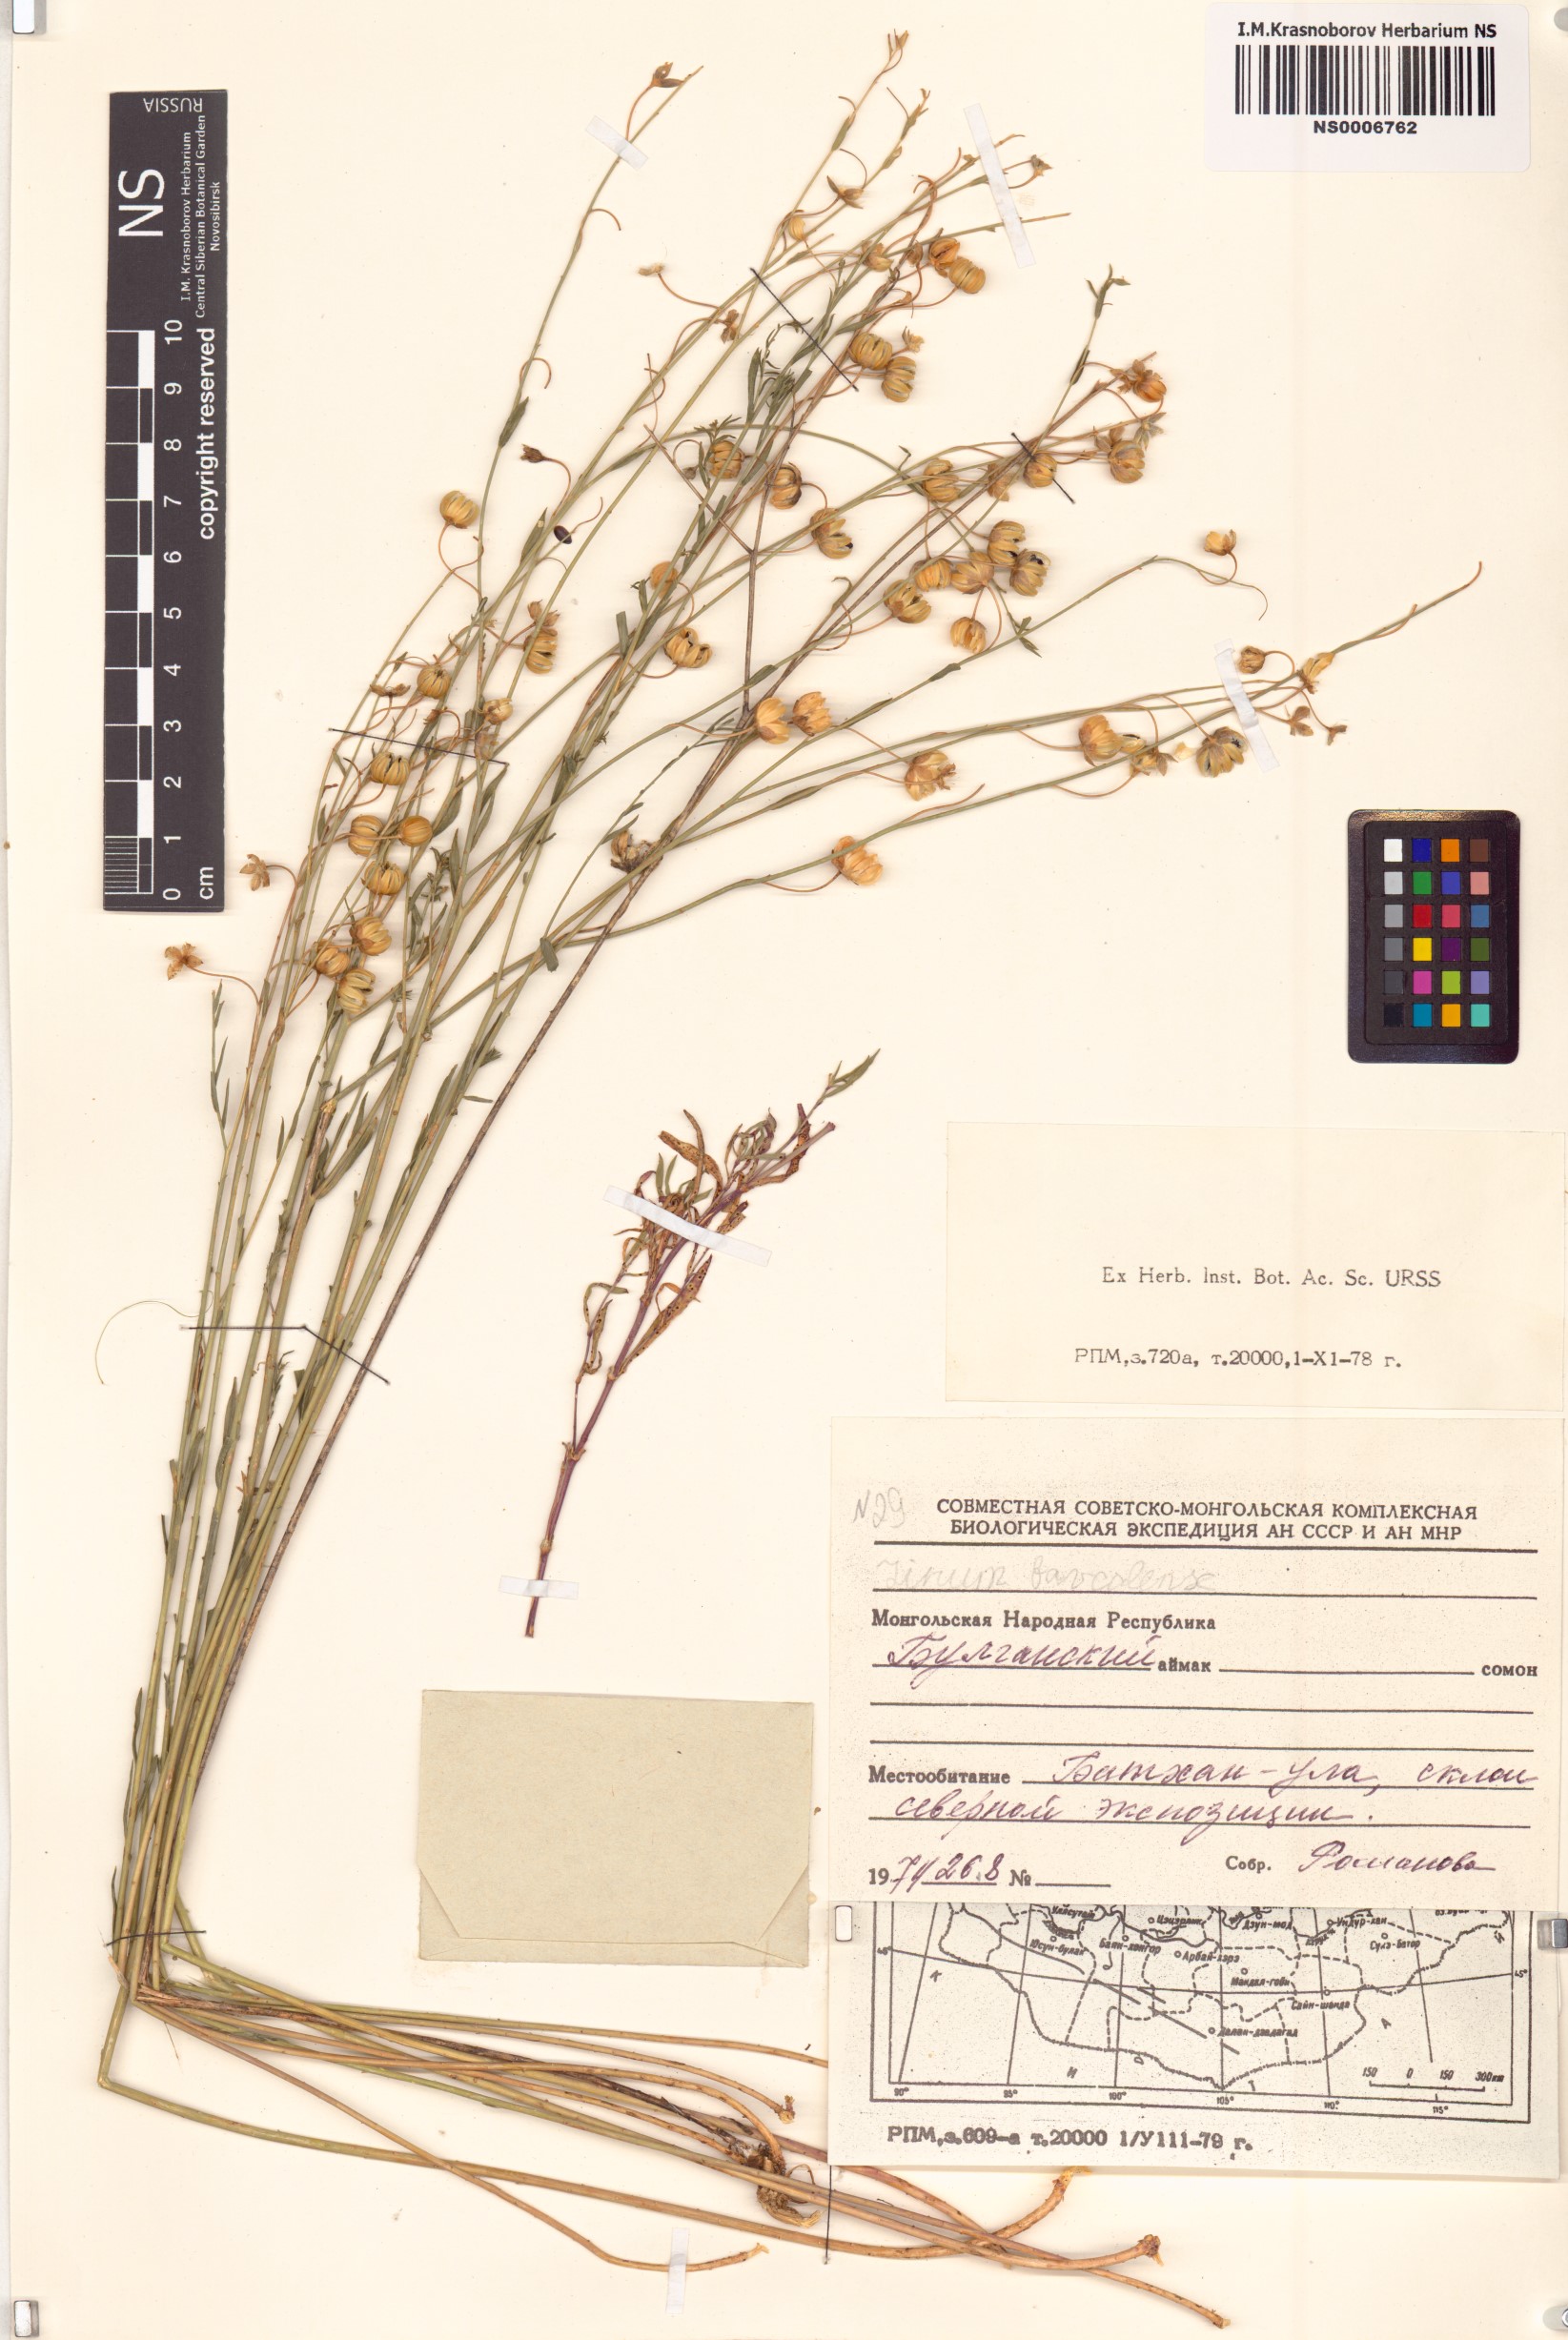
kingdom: Plantae
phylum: Tracheophyta
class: Magnoliopsida
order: Malpighiales
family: Linaceae
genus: Linum
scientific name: Linum nutans
